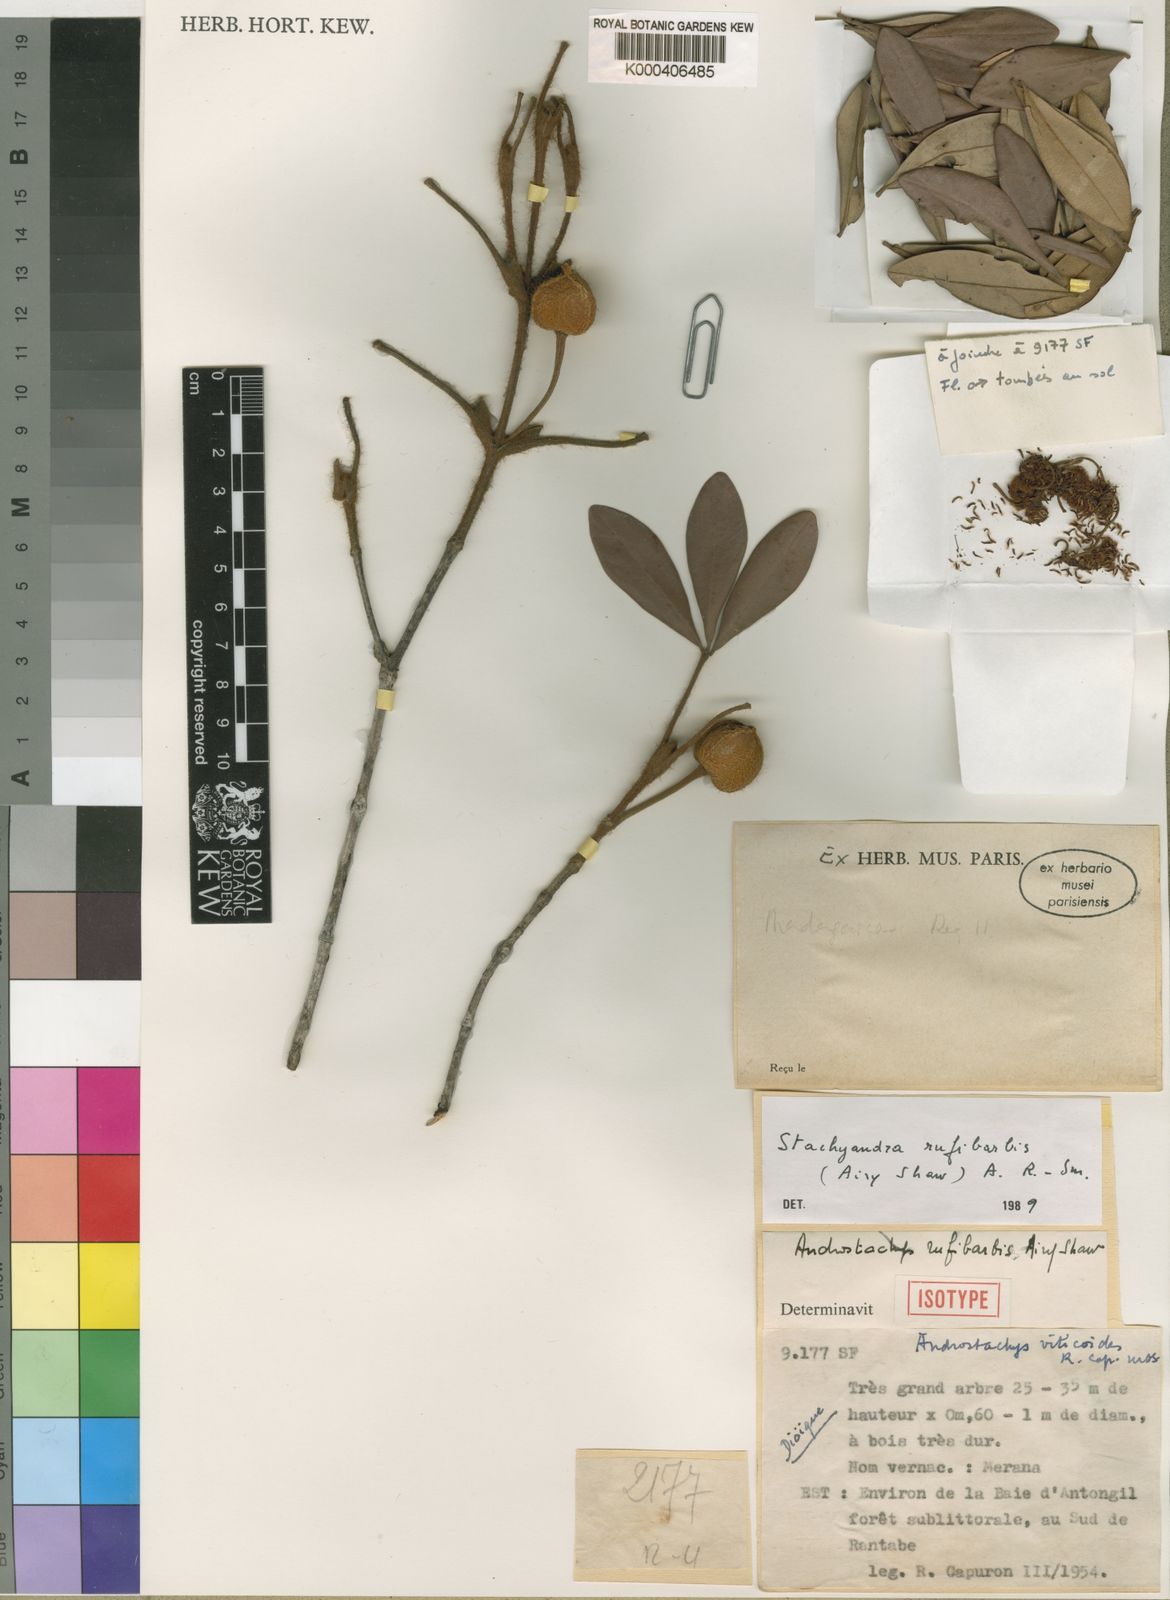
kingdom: Plantae
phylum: Tracheophyta
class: Magnoliopsida
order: Malpighiales
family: Picrodendraceae
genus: Stachyandra
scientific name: Stachyandra rufibarbis
